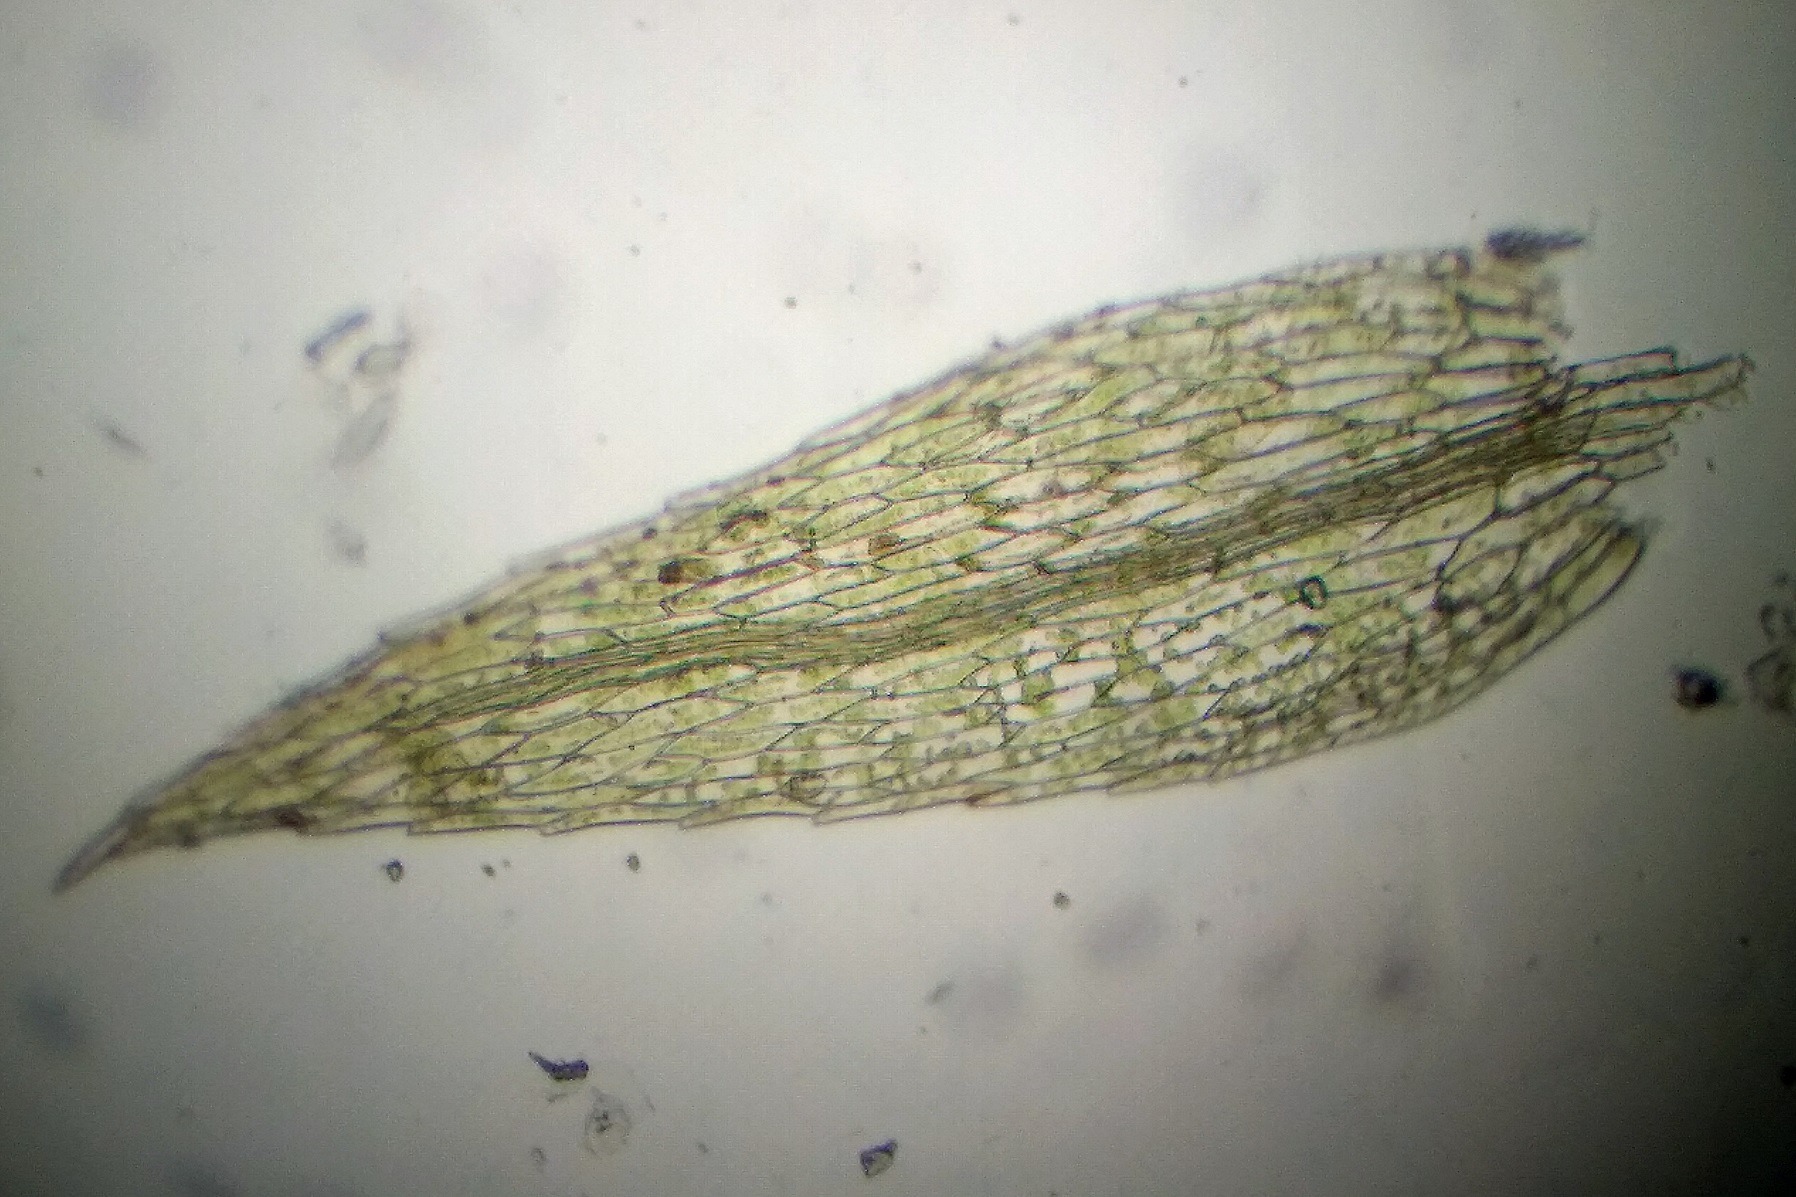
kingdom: Plantae
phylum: Bryophyta
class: Bryopsida
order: Bryales
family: Mniaceae
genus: Pohlia
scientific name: Pohlia wahlenbergii
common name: Lysegrøn voksmos
